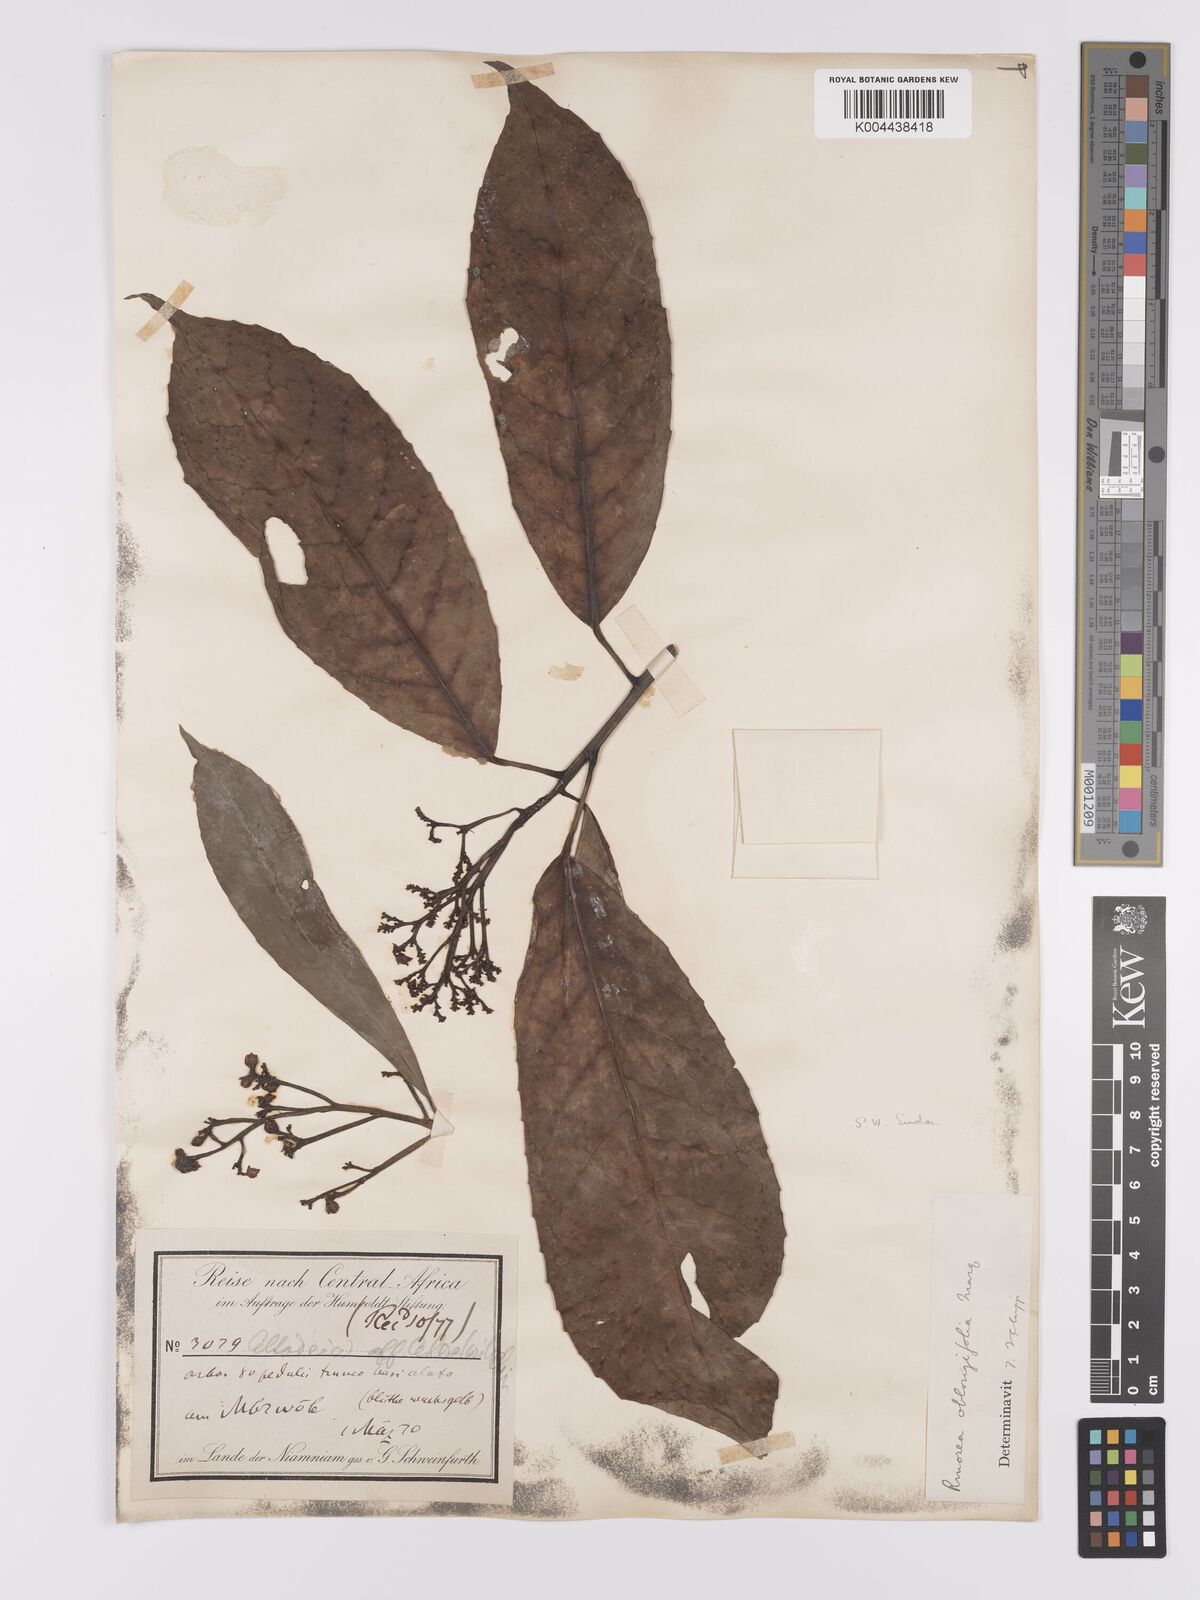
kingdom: Plantae
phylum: Tracheophyta
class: Magnoliopsida
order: Apiales
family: Pittosporaceae
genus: Marianthus
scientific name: Marianthus coeruleopunctatus
